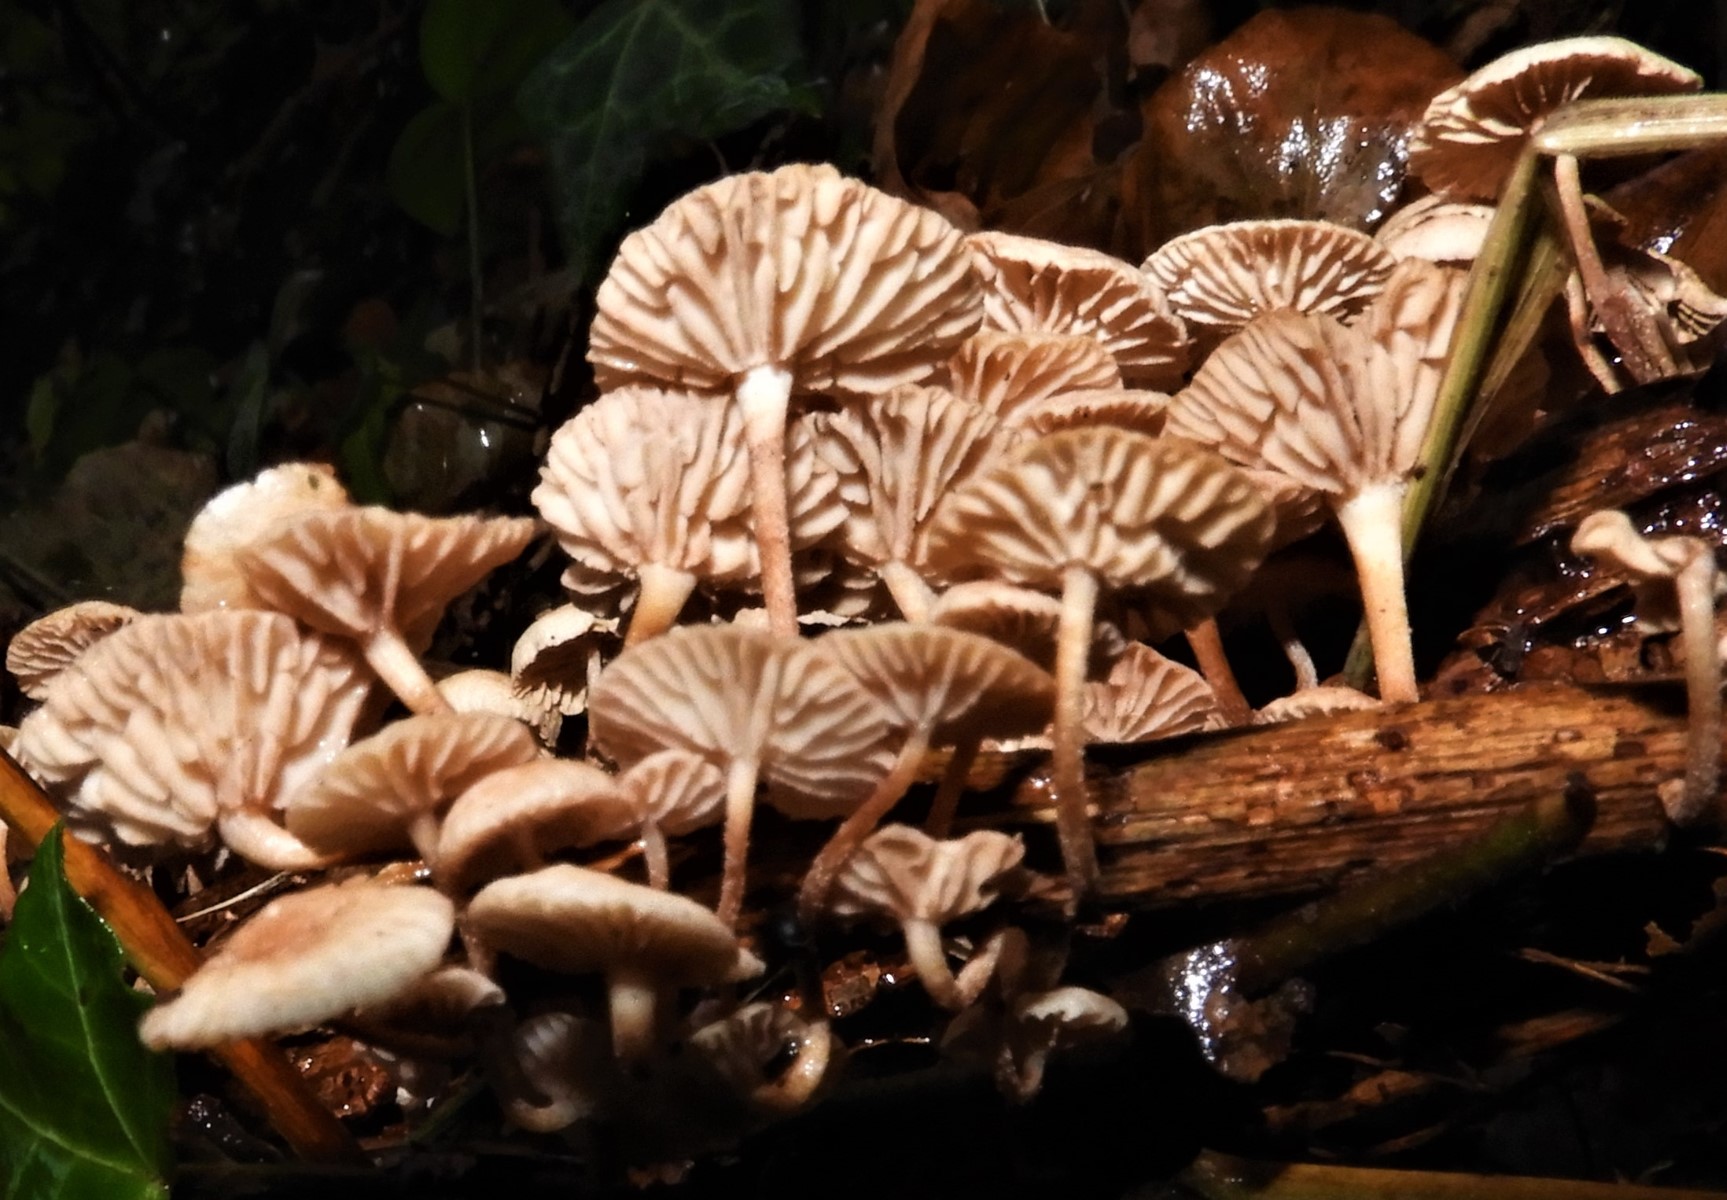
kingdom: Fungi
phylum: Basidiomycota
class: Agaricomycetes
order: Agaricales
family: Omphalotaceae
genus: Collybiopsis
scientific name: Collybiopsis ramealis
